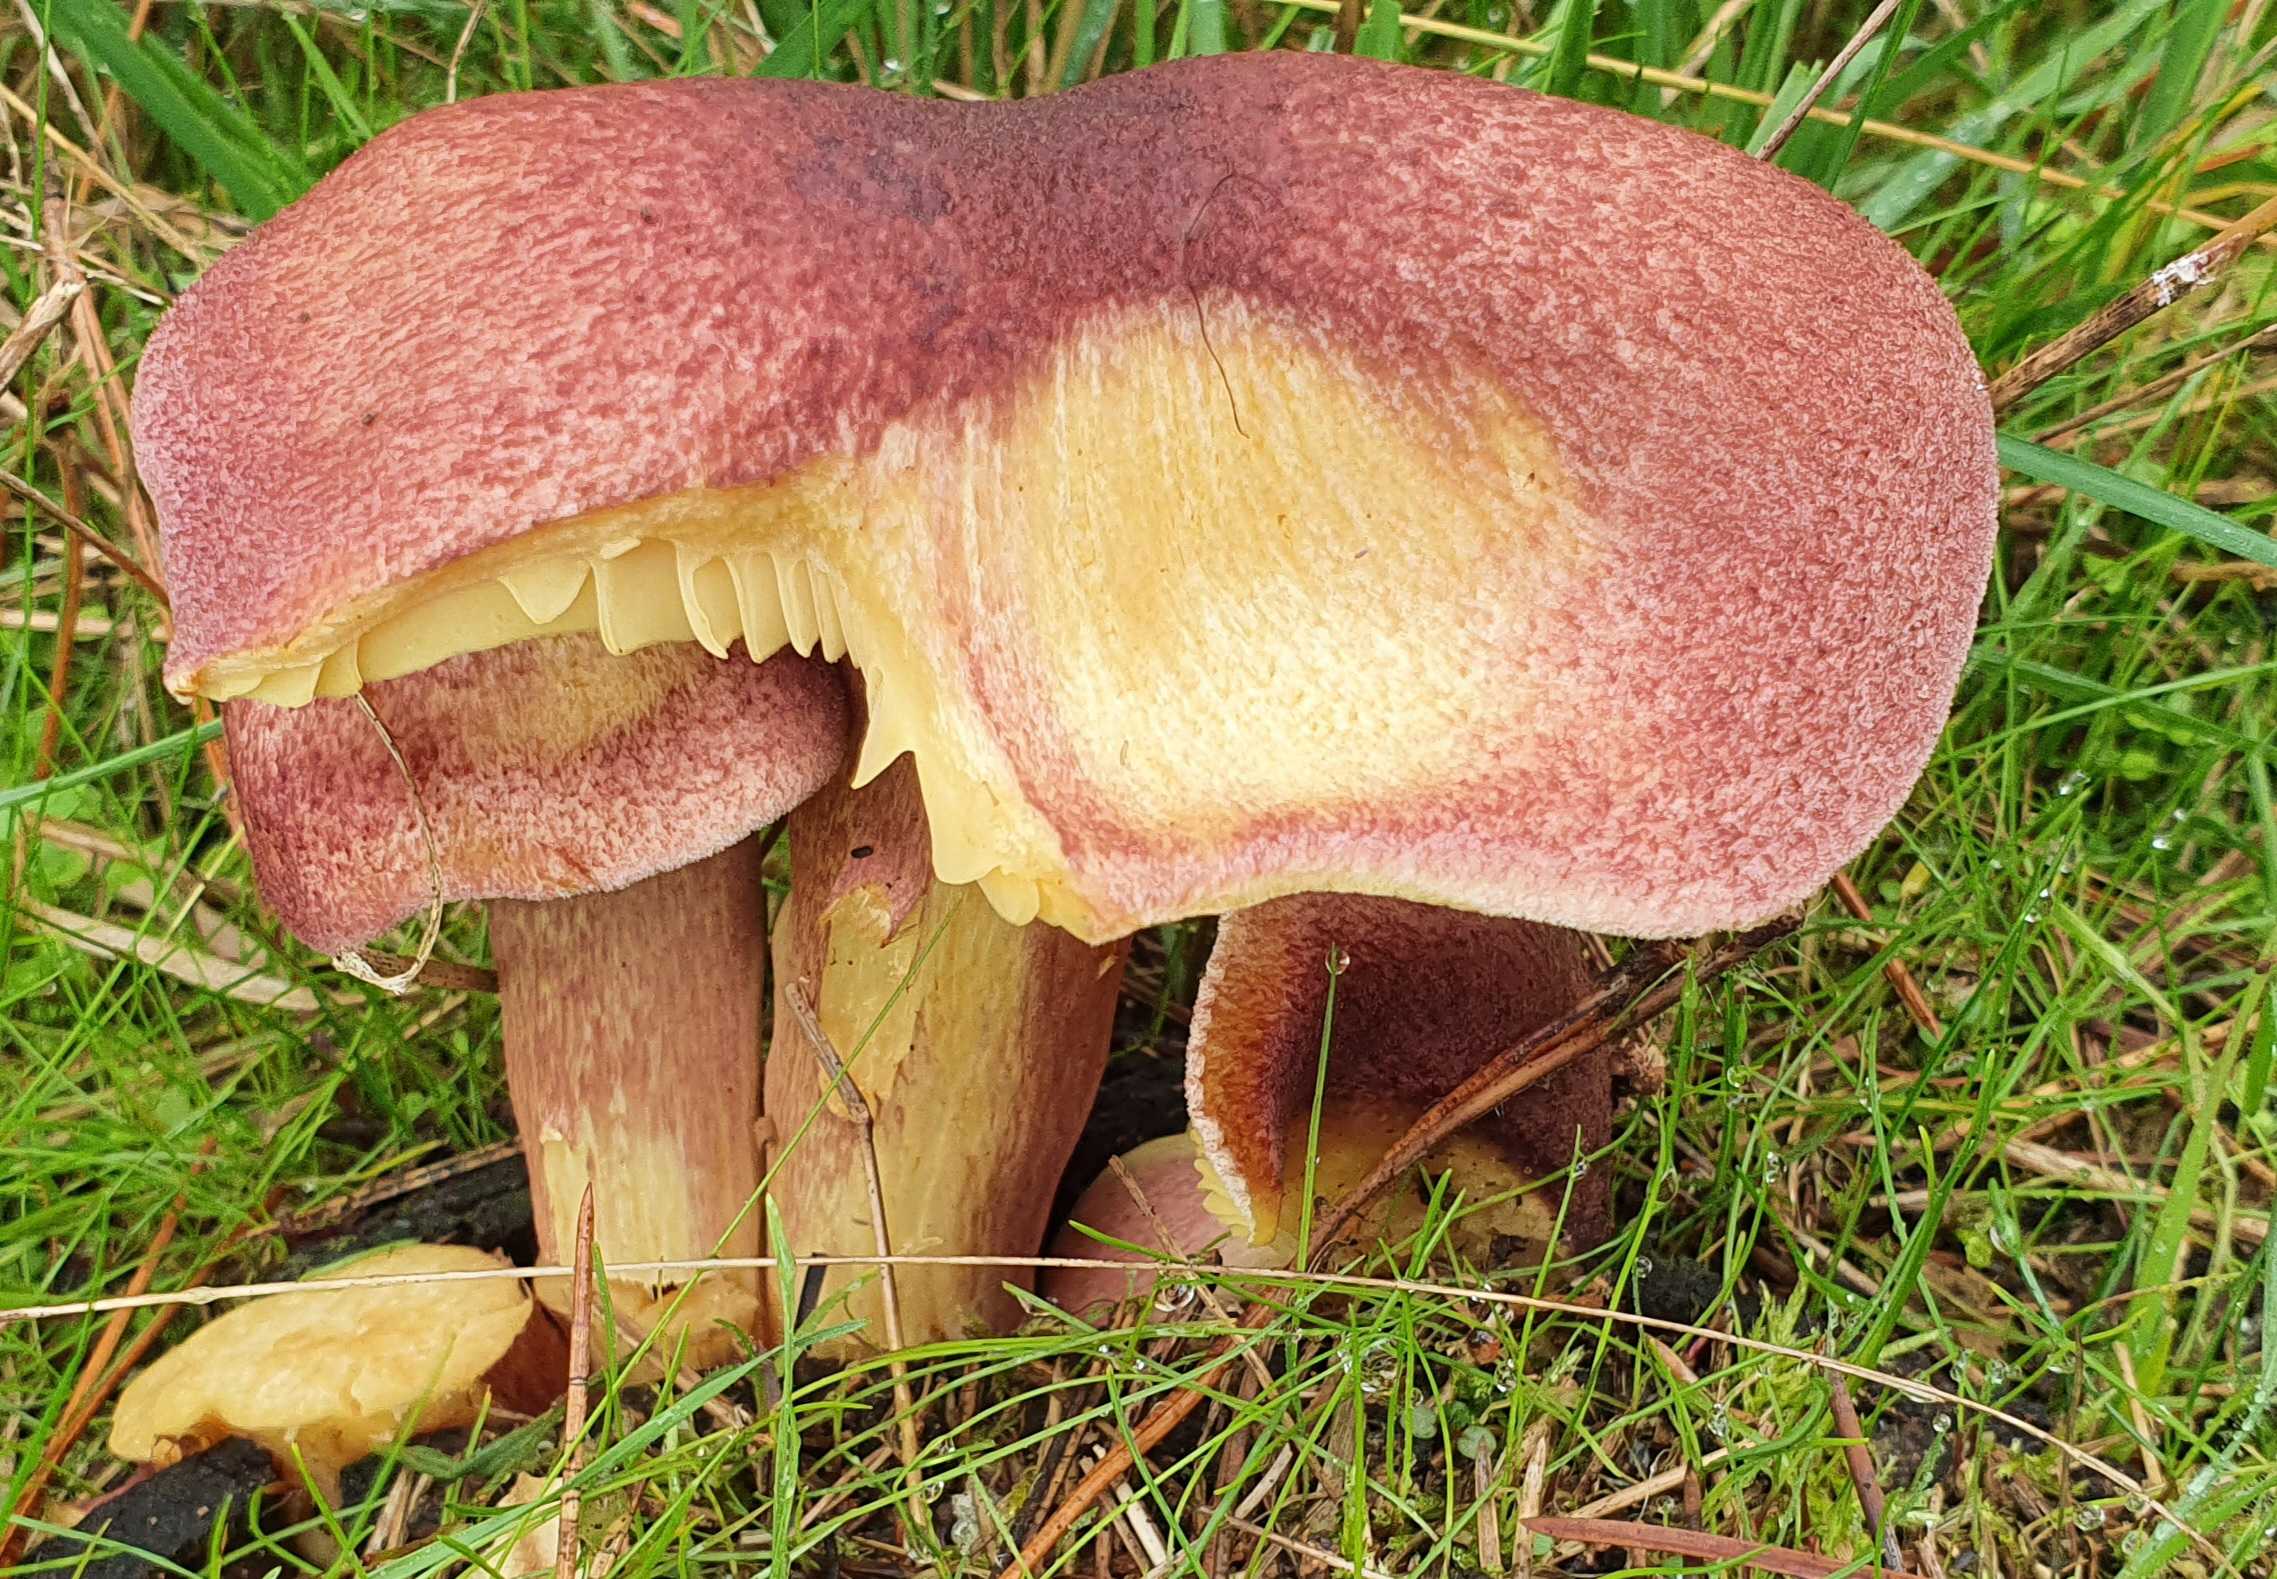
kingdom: Fungi
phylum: Basidiomycota
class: Agaricomycetes
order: Agaricales
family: Tricholomataceae
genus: Tricholomopsis
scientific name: Tricholomopsis rutilans
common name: purpur-væbnerhat
